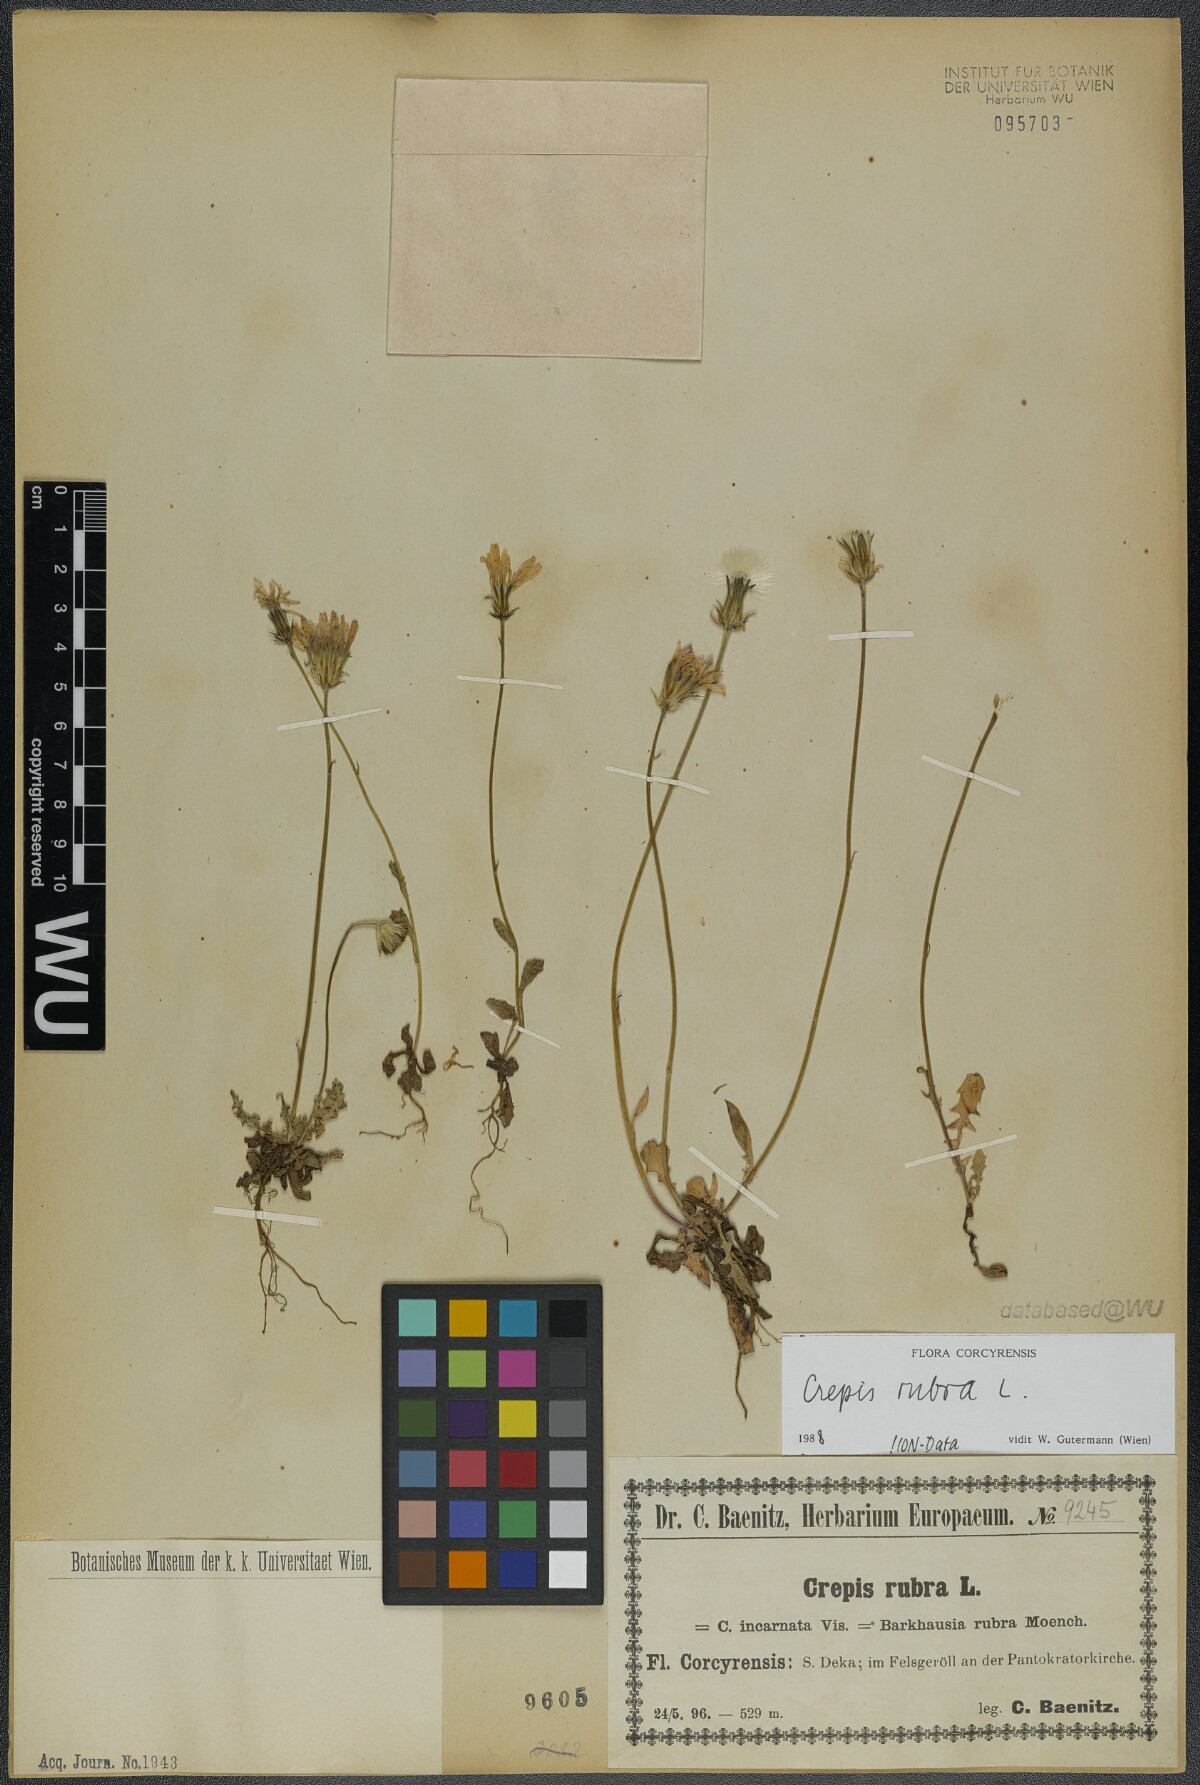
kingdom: Plantae
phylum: Tracheophyta
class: Magnoliopsida
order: Asterales
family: Asteraceae
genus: Crepis
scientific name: Crepis rubra
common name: Pink hawk's-beard
